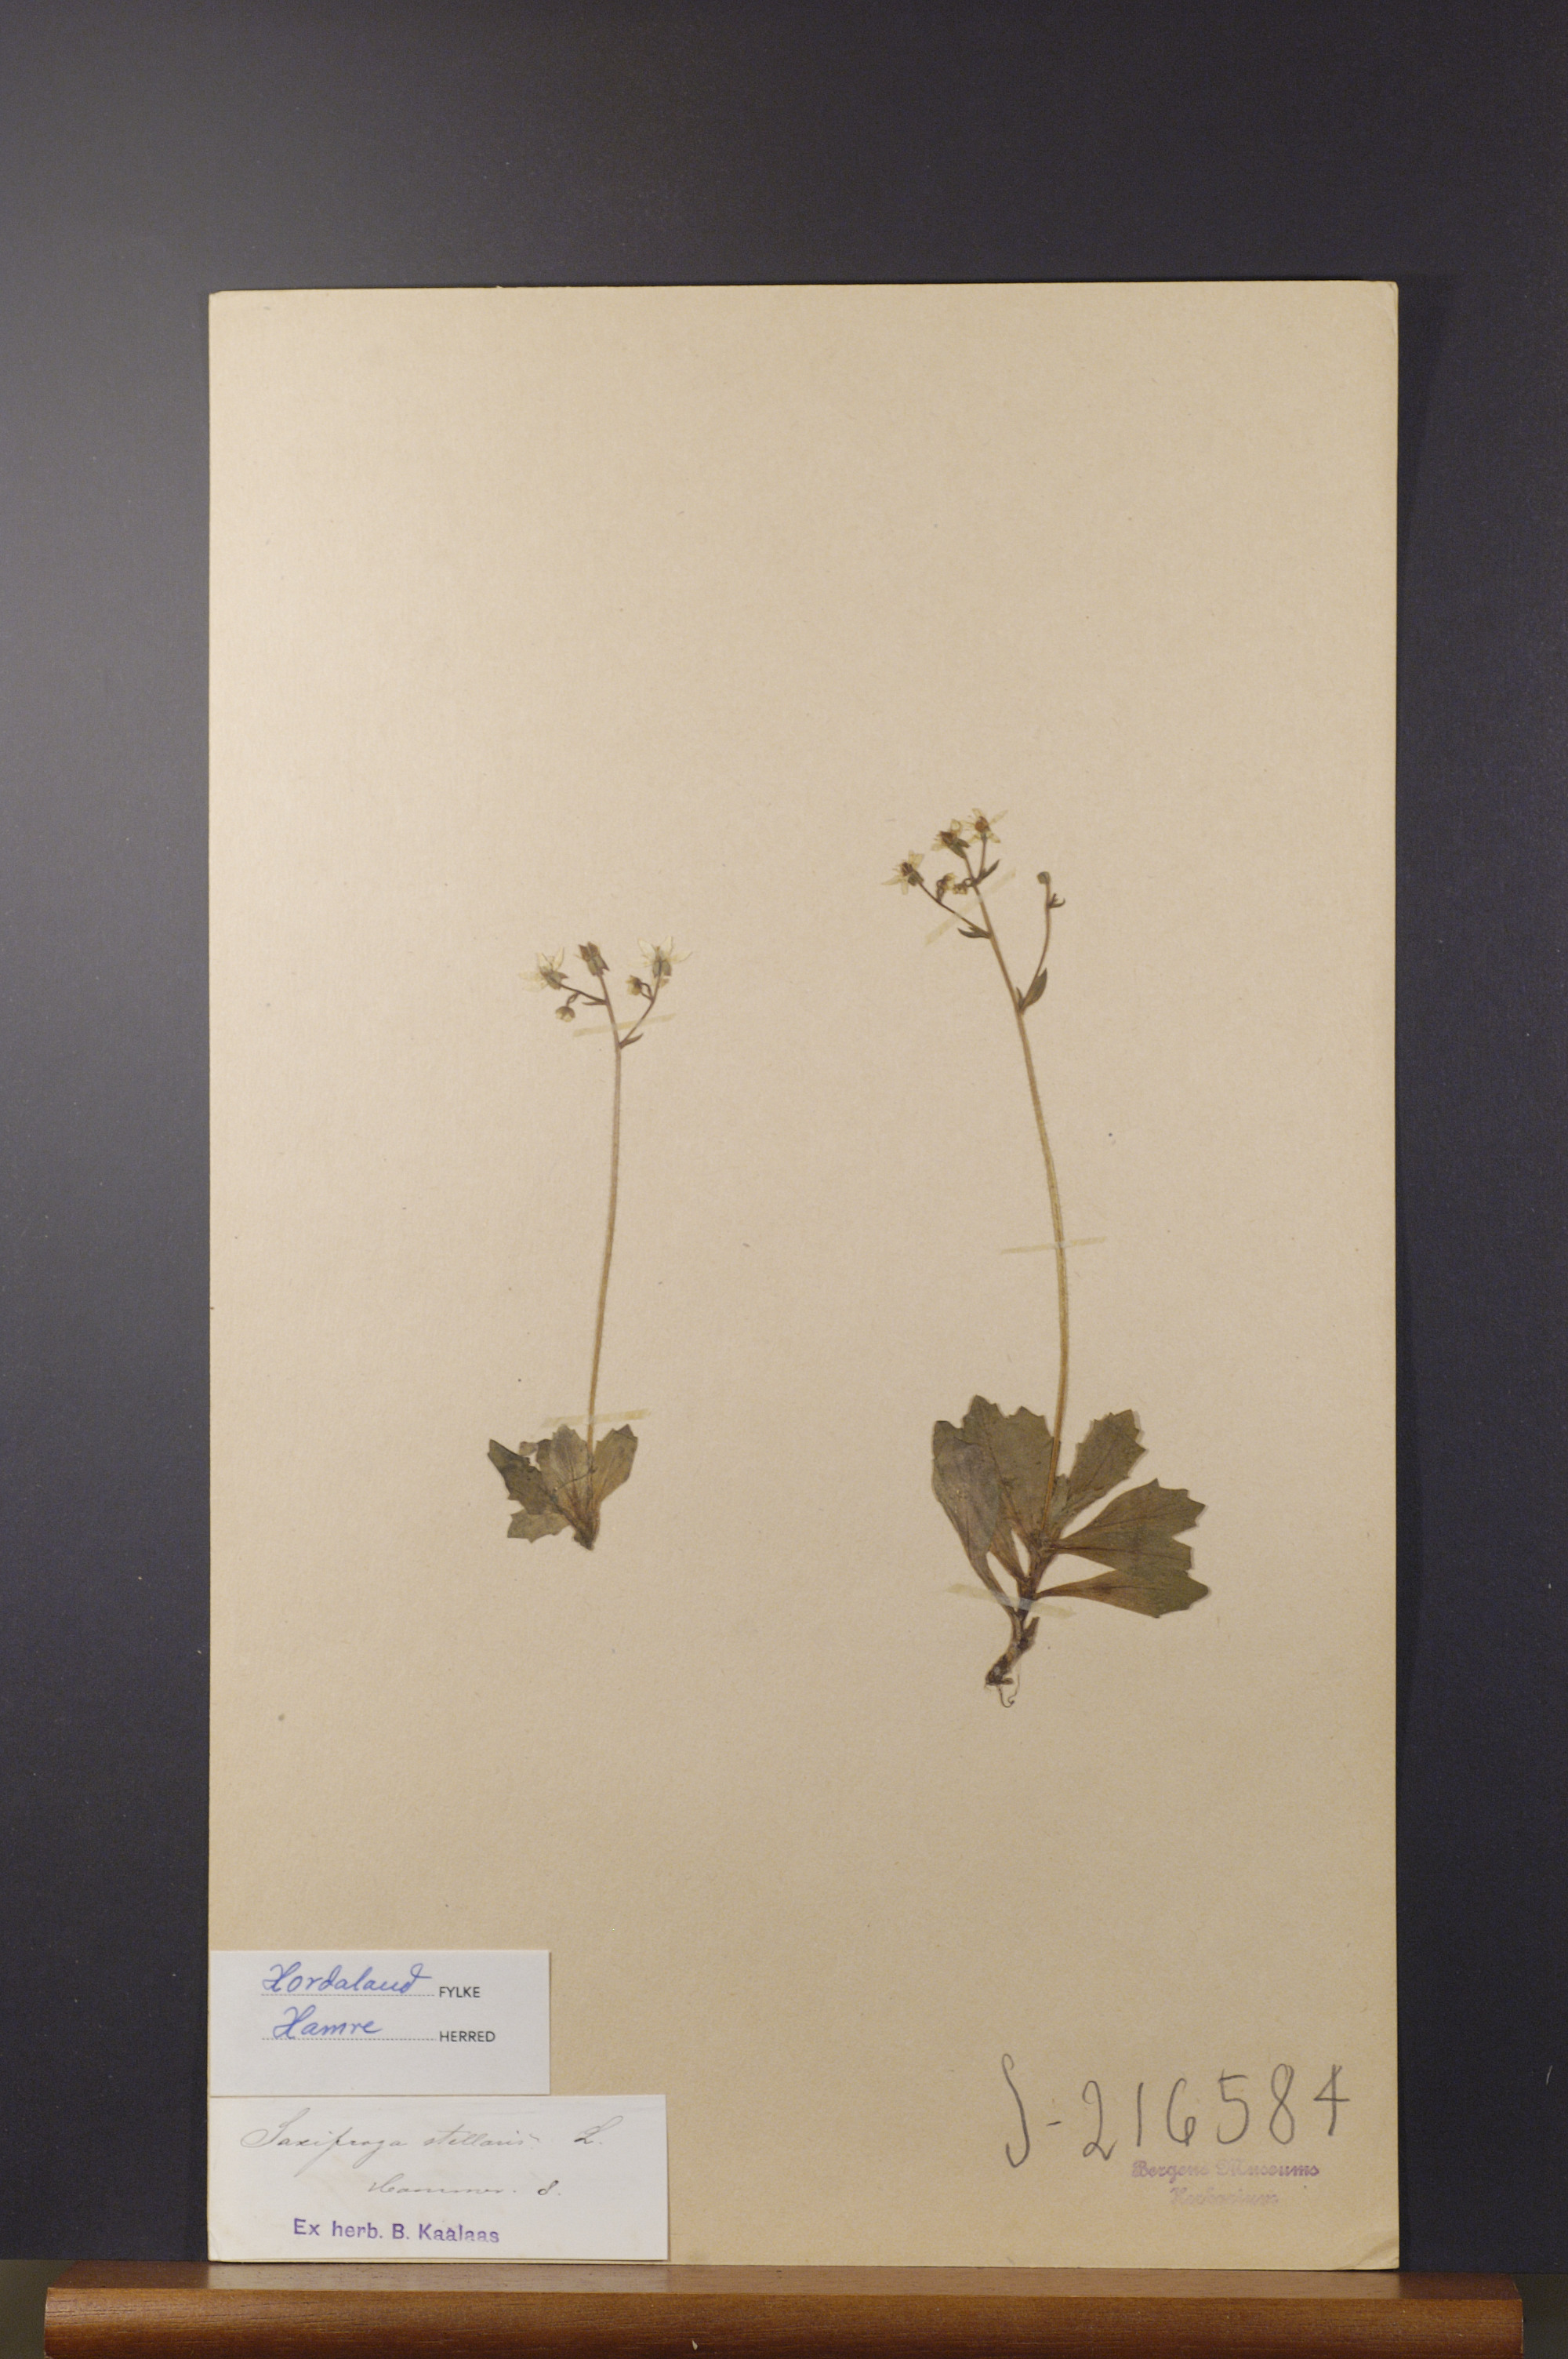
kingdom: Plantae
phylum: Tracheophyta
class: Magnoliopsida
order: Saxifragales
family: Saxifragaceae
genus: Micranthes
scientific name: Micranthes stellaris
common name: Starry saxifrage
